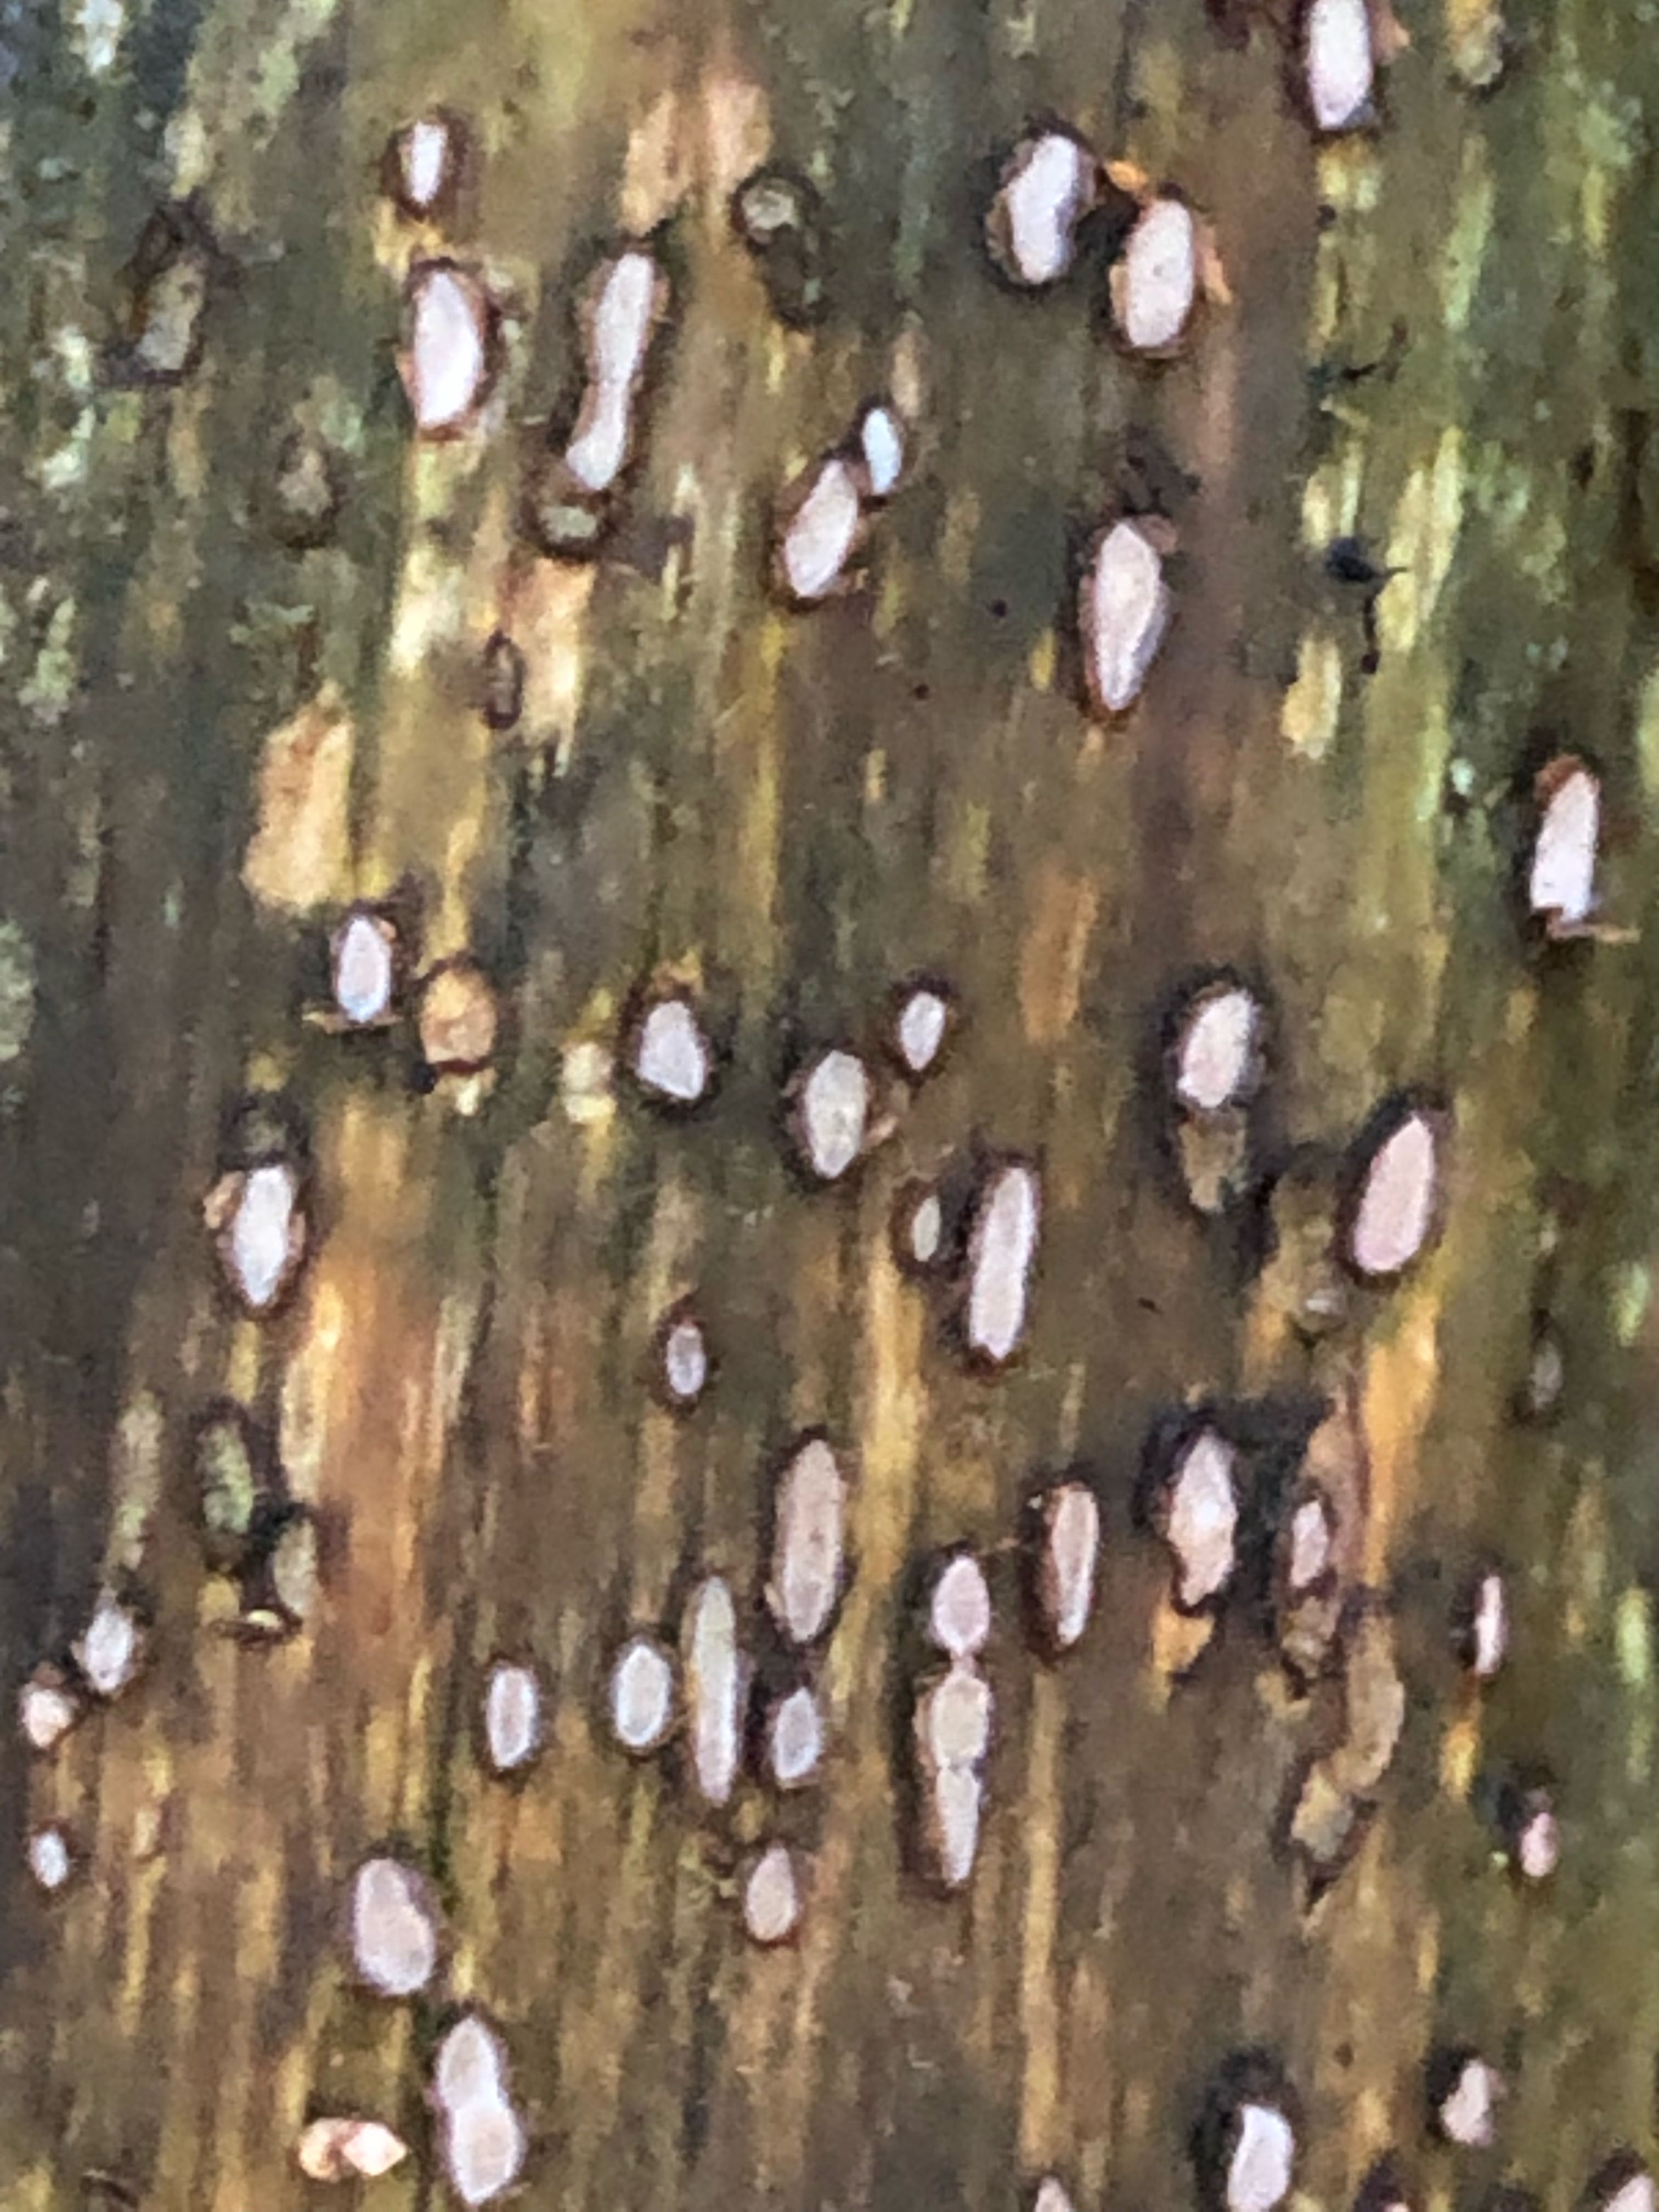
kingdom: Fungi
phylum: Ascomycota
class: Leotiomycetes
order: Chaetomellales
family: Marthamycetaceae
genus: Propolis
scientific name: Propolis farinosa
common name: almindelig vedsprængerskive
